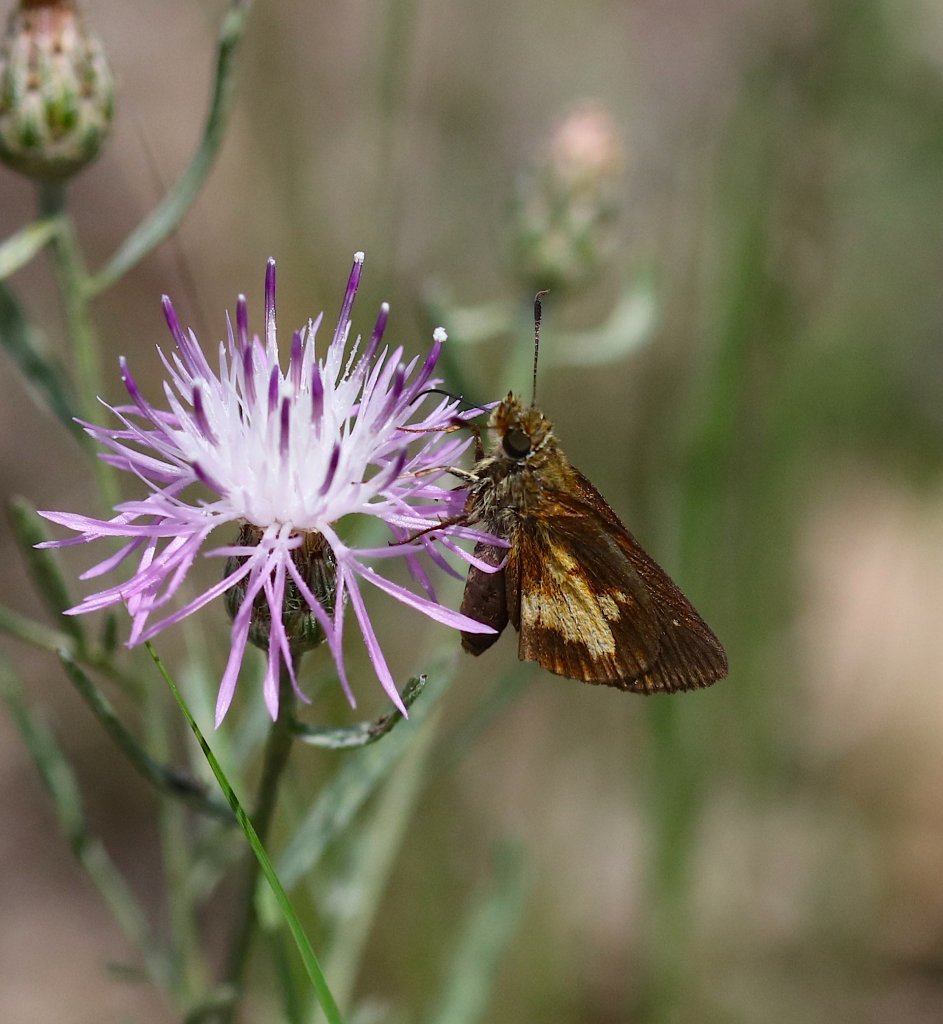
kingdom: Animalia
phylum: Arthropoda
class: Insecta
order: Lepidoptera
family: Hesperiidae
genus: Poanes
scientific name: Poanes massasoit
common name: Mulberry Wing
